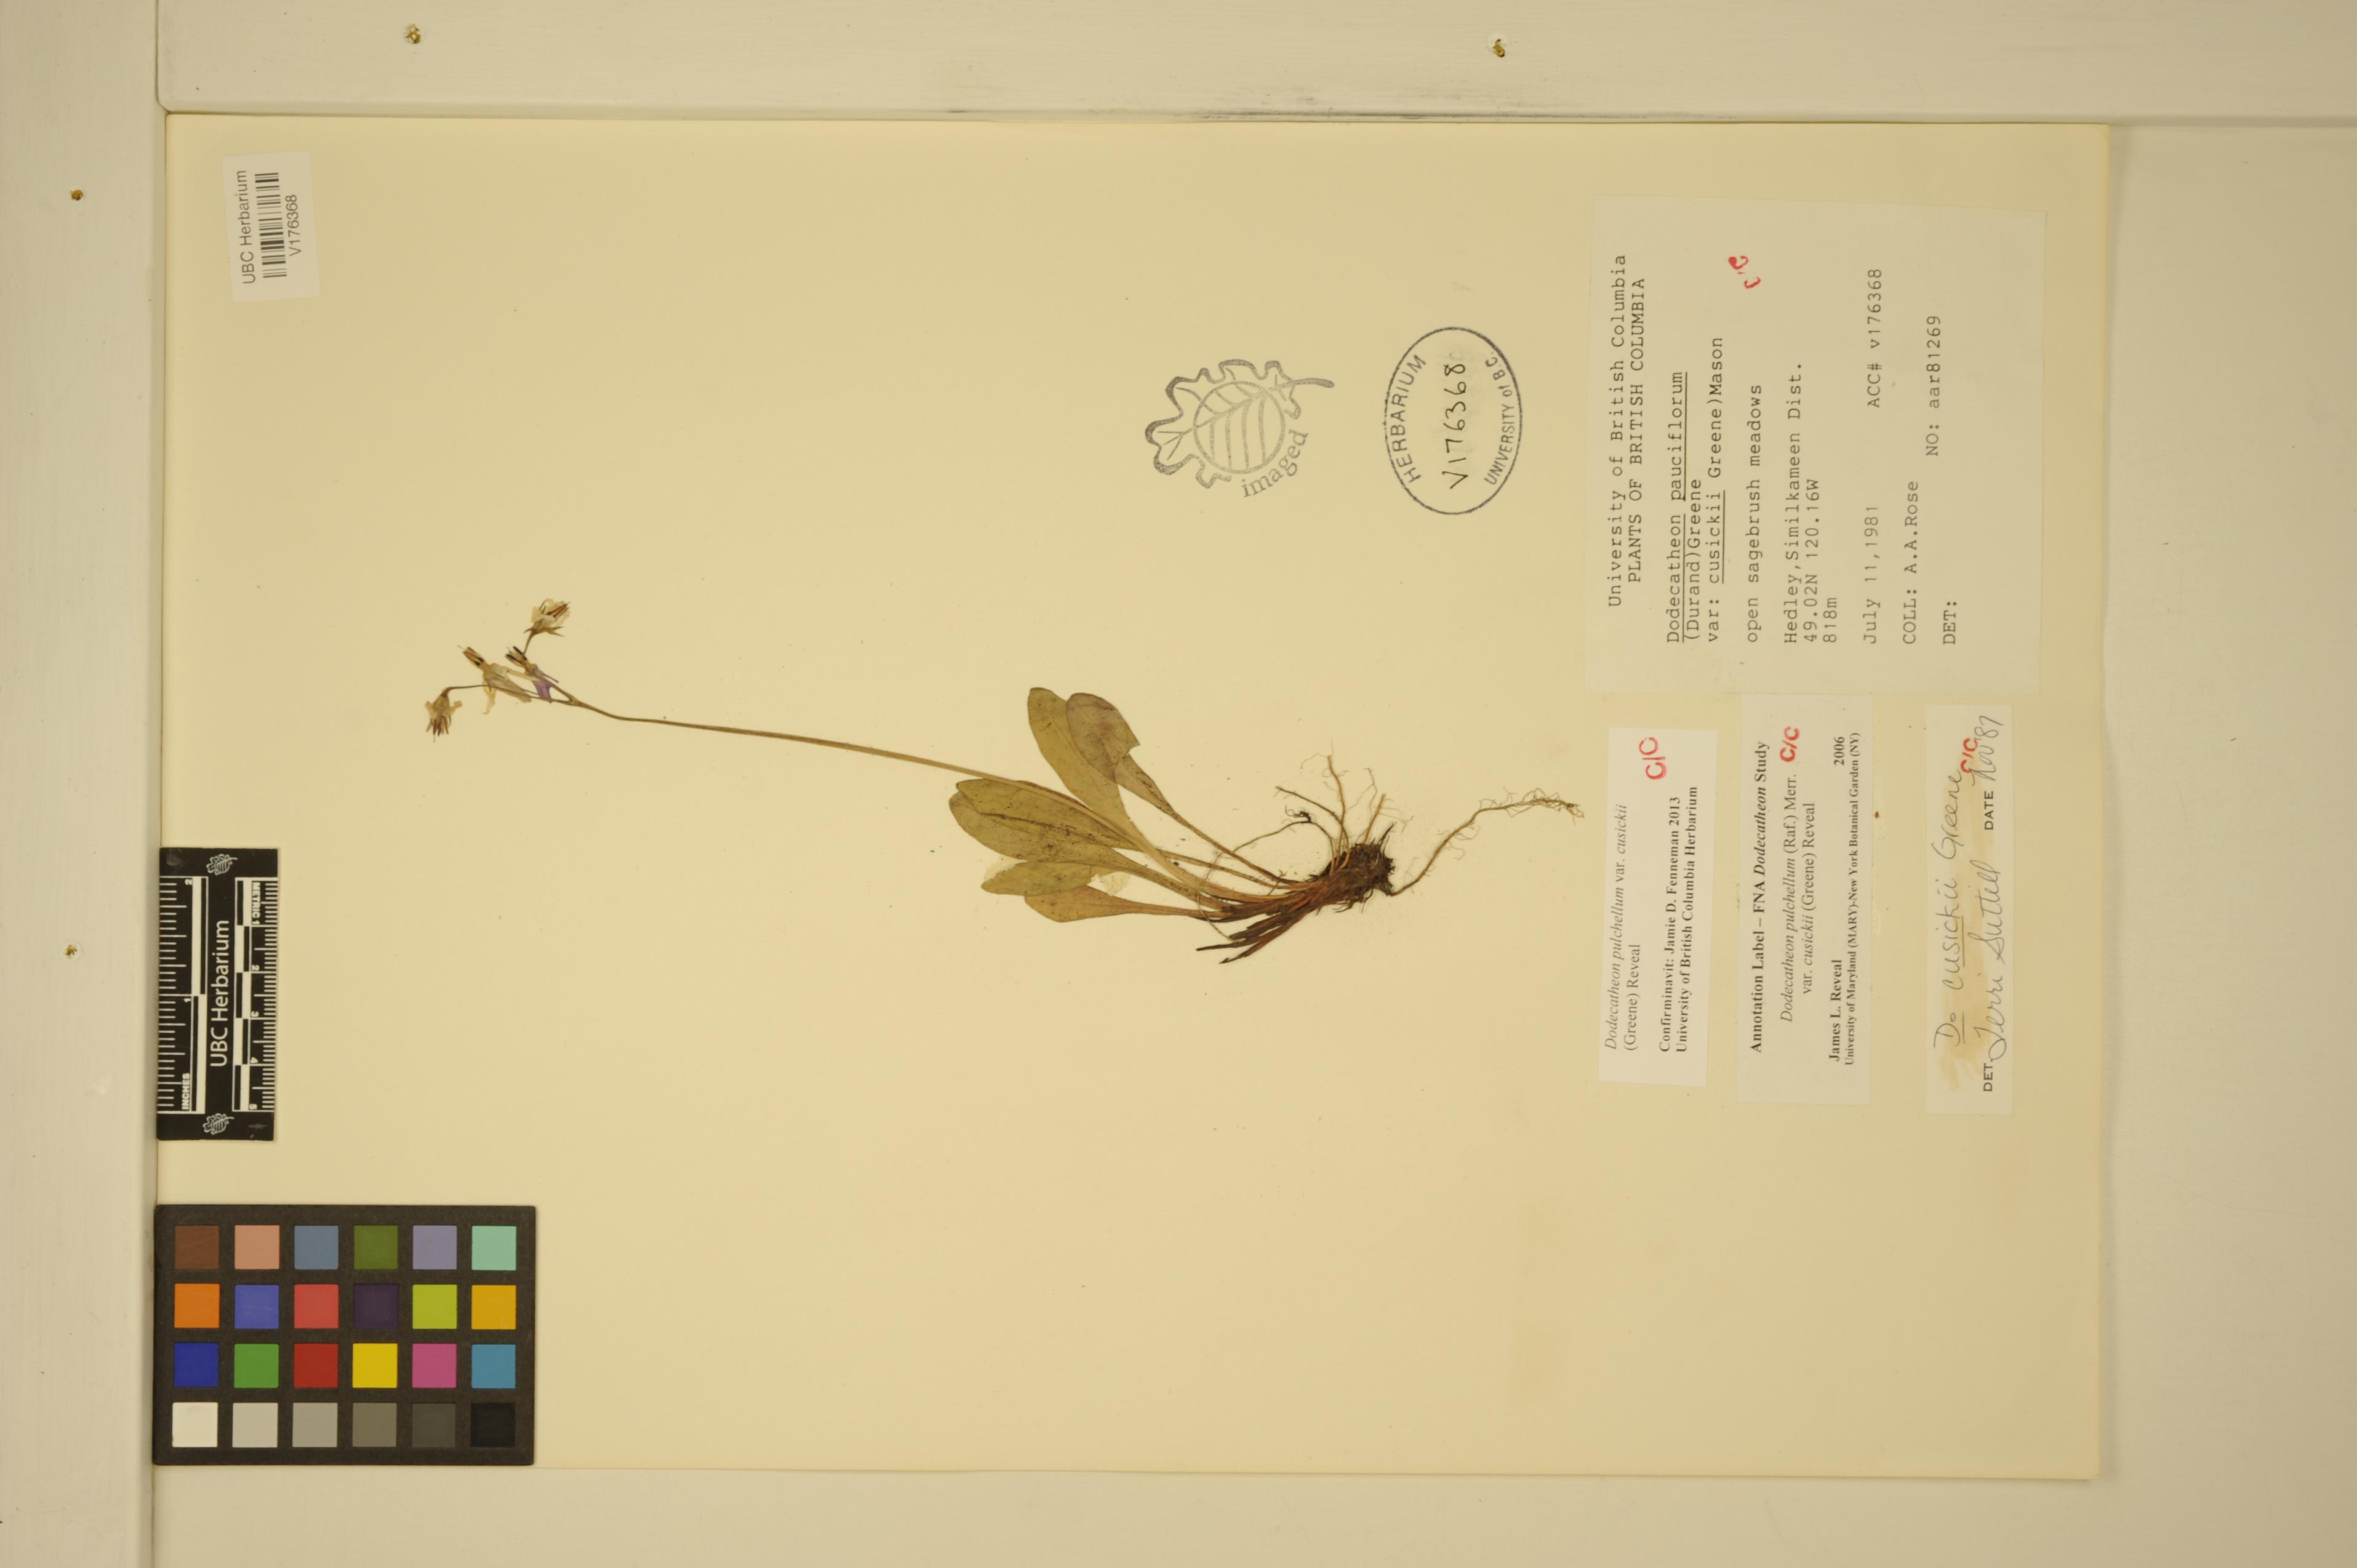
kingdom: Plantae
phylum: Tracheophyta
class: Magnoliopsida
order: Ericales
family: Primulaceae
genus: Dodecatheon
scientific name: Dodecatheon pulchellum
